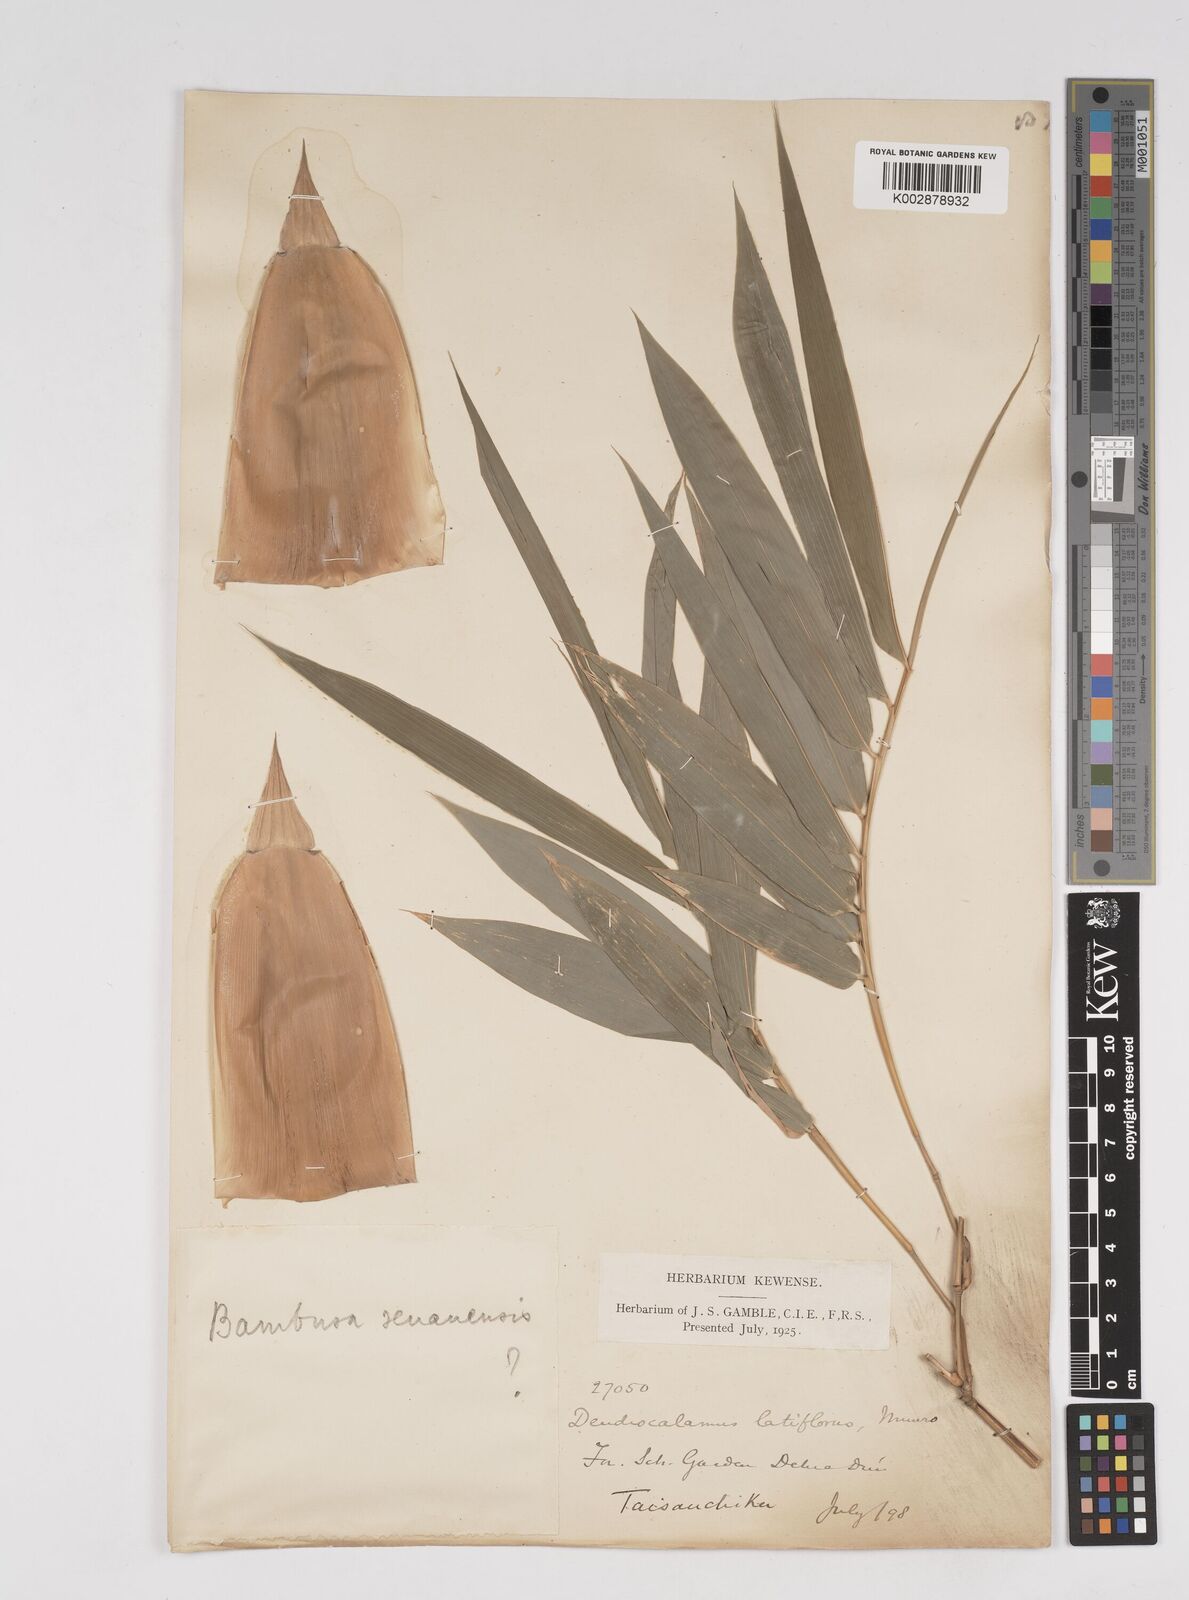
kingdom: Plantae
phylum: Tracheophyta
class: Liliopsida
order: Poales
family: Poaceae
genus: Dendrocalamus
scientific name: Dendrocalamus latiflorus
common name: Giant bamboo
